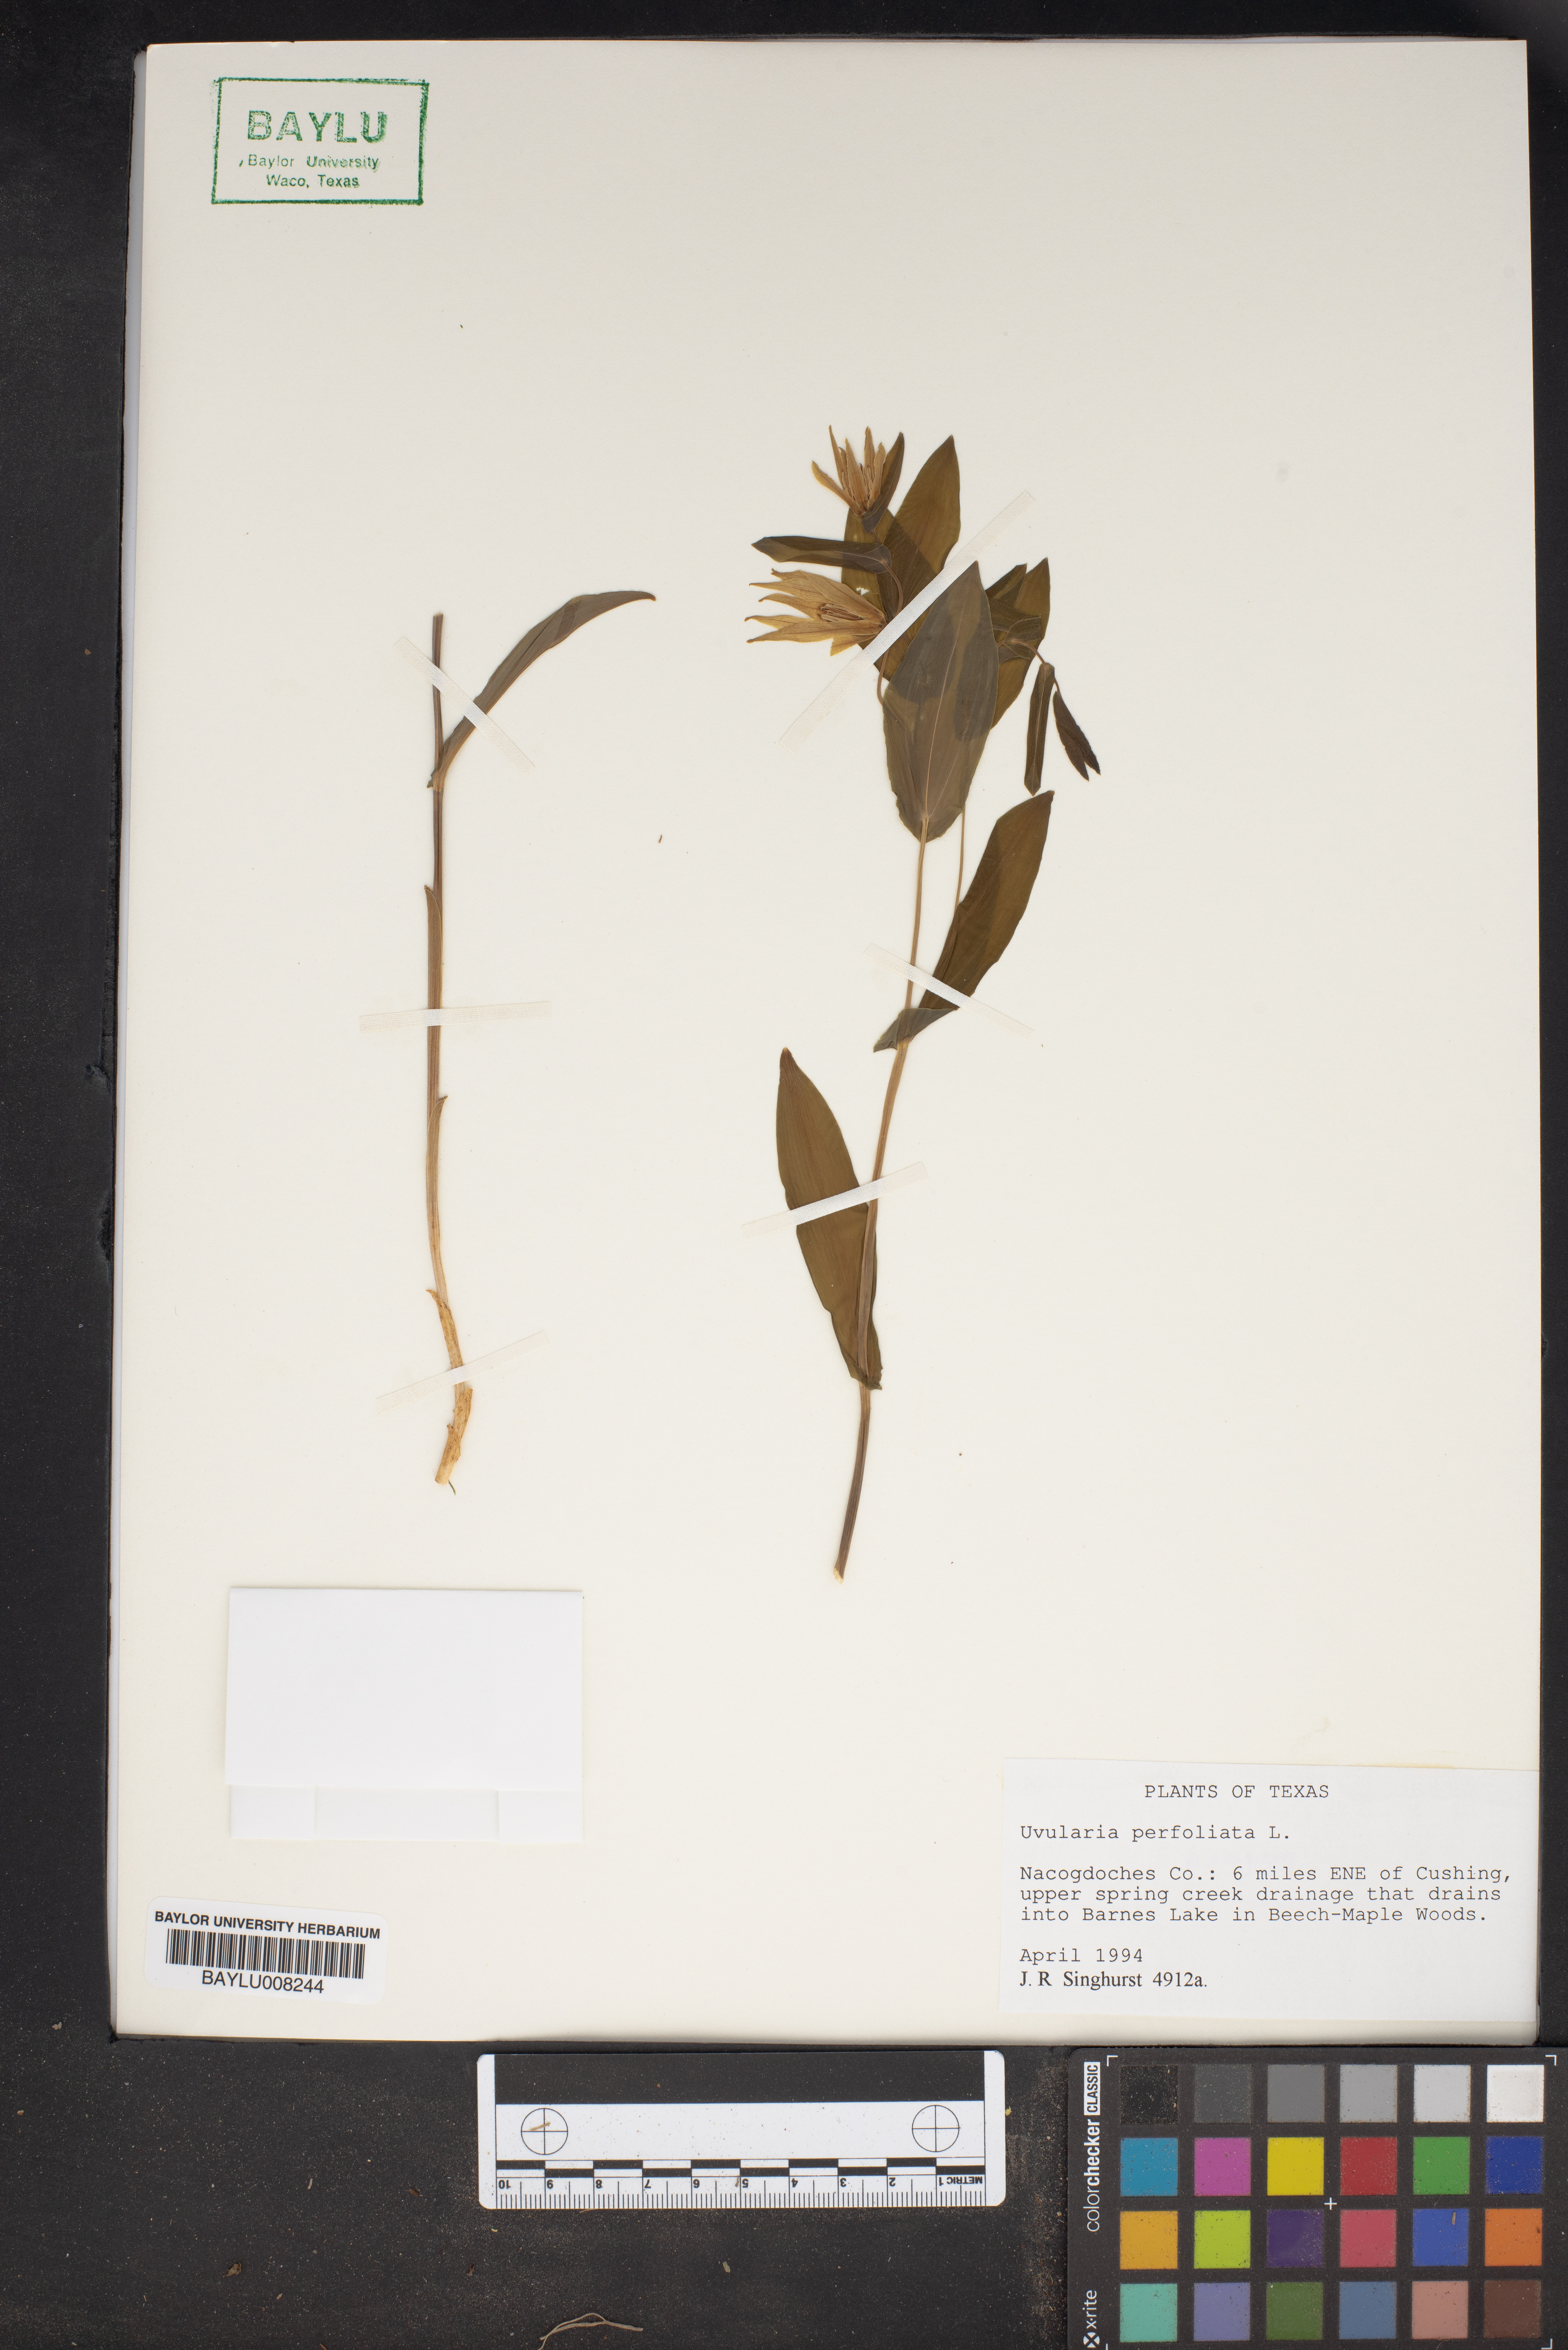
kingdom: Plantae
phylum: Tracheophyta
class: Liliopsida
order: Liliales
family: Colchicaceae
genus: Uvularia
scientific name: Uvularia perfoliata
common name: Perfoliate bellwort
